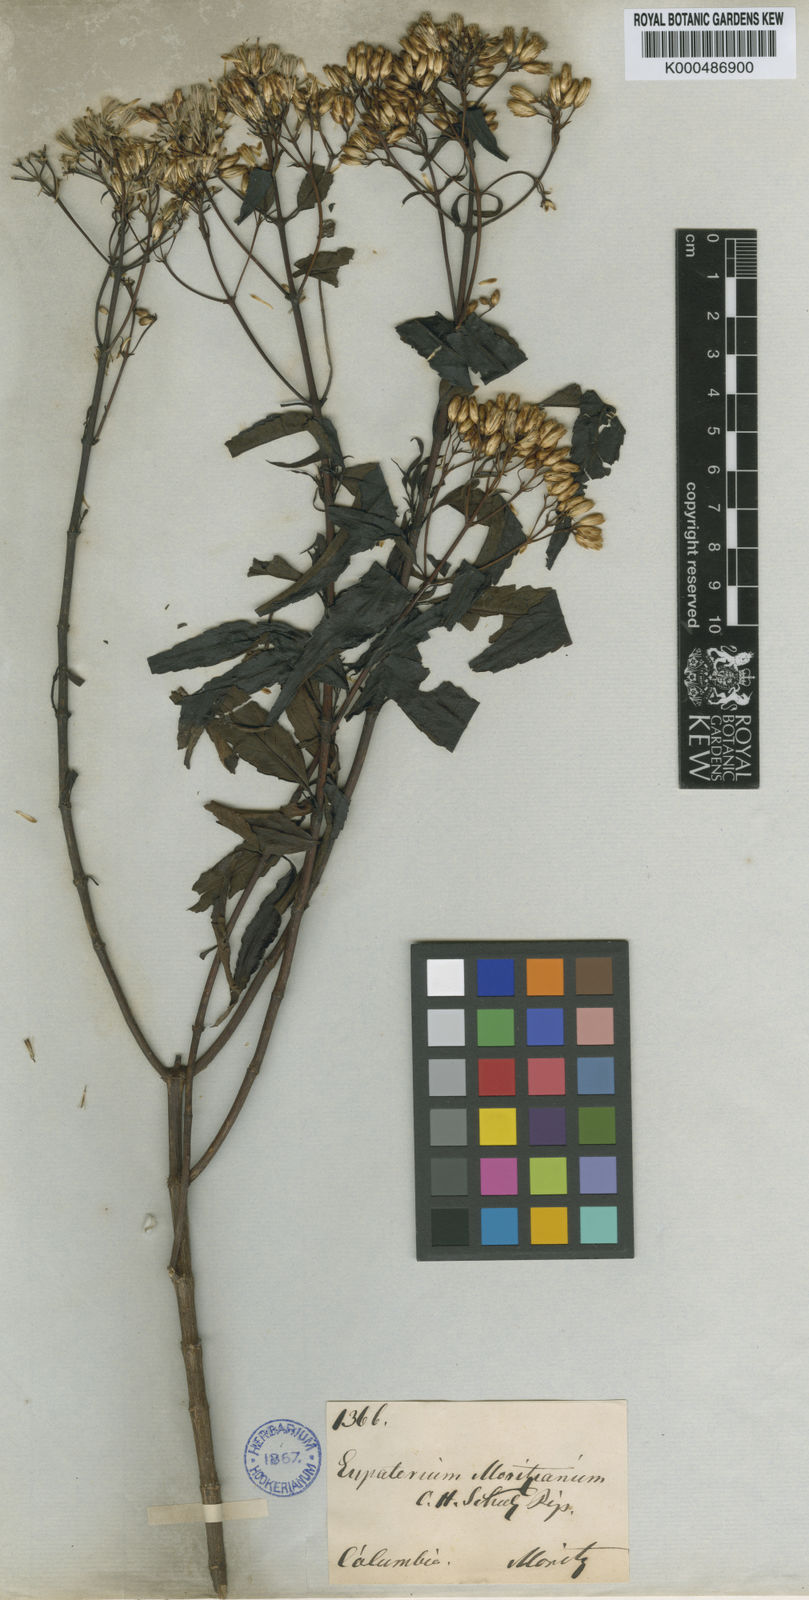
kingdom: Plantae
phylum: Tracheophyta
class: Magnoliopsida
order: Asterales
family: Asteraceae
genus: Chromolaena
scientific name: Chromolaena moritziana
